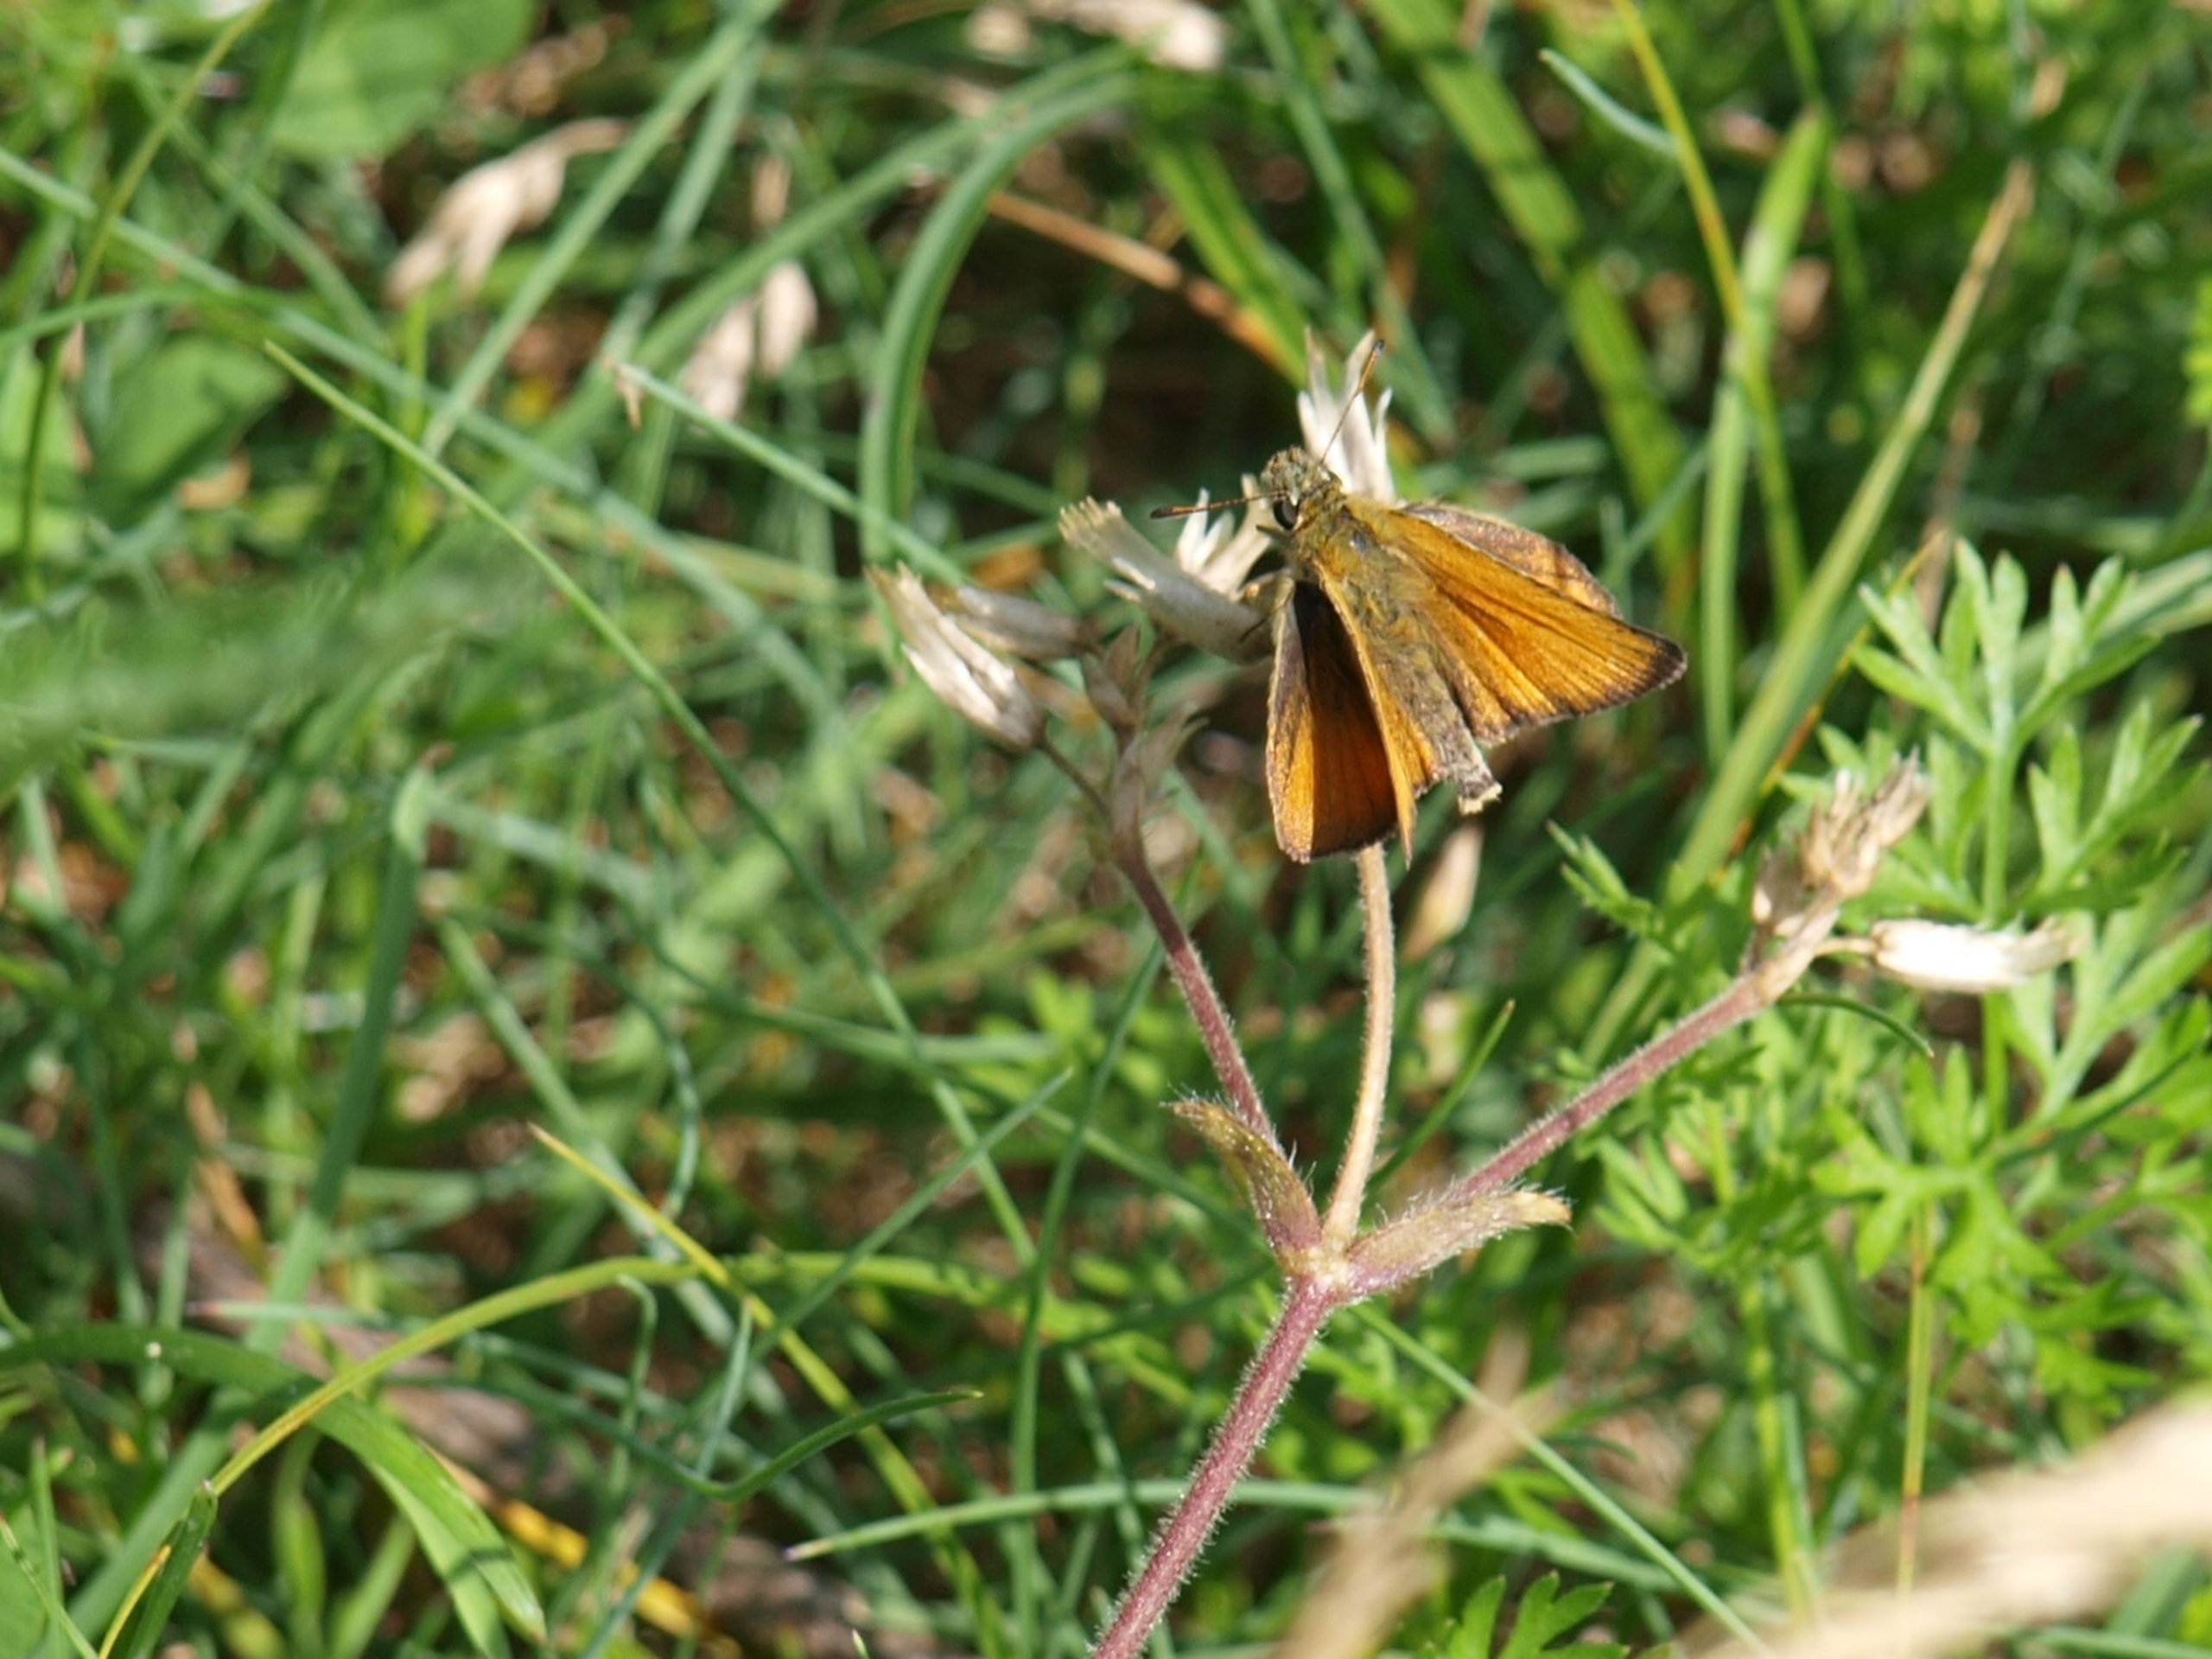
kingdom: Animalia
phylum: Arthropoda
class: Insecta
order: Lepidoptera
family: Hesperiidae
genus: Thymelicus
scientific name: Thymelicus lineola
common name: Stregbredpande
